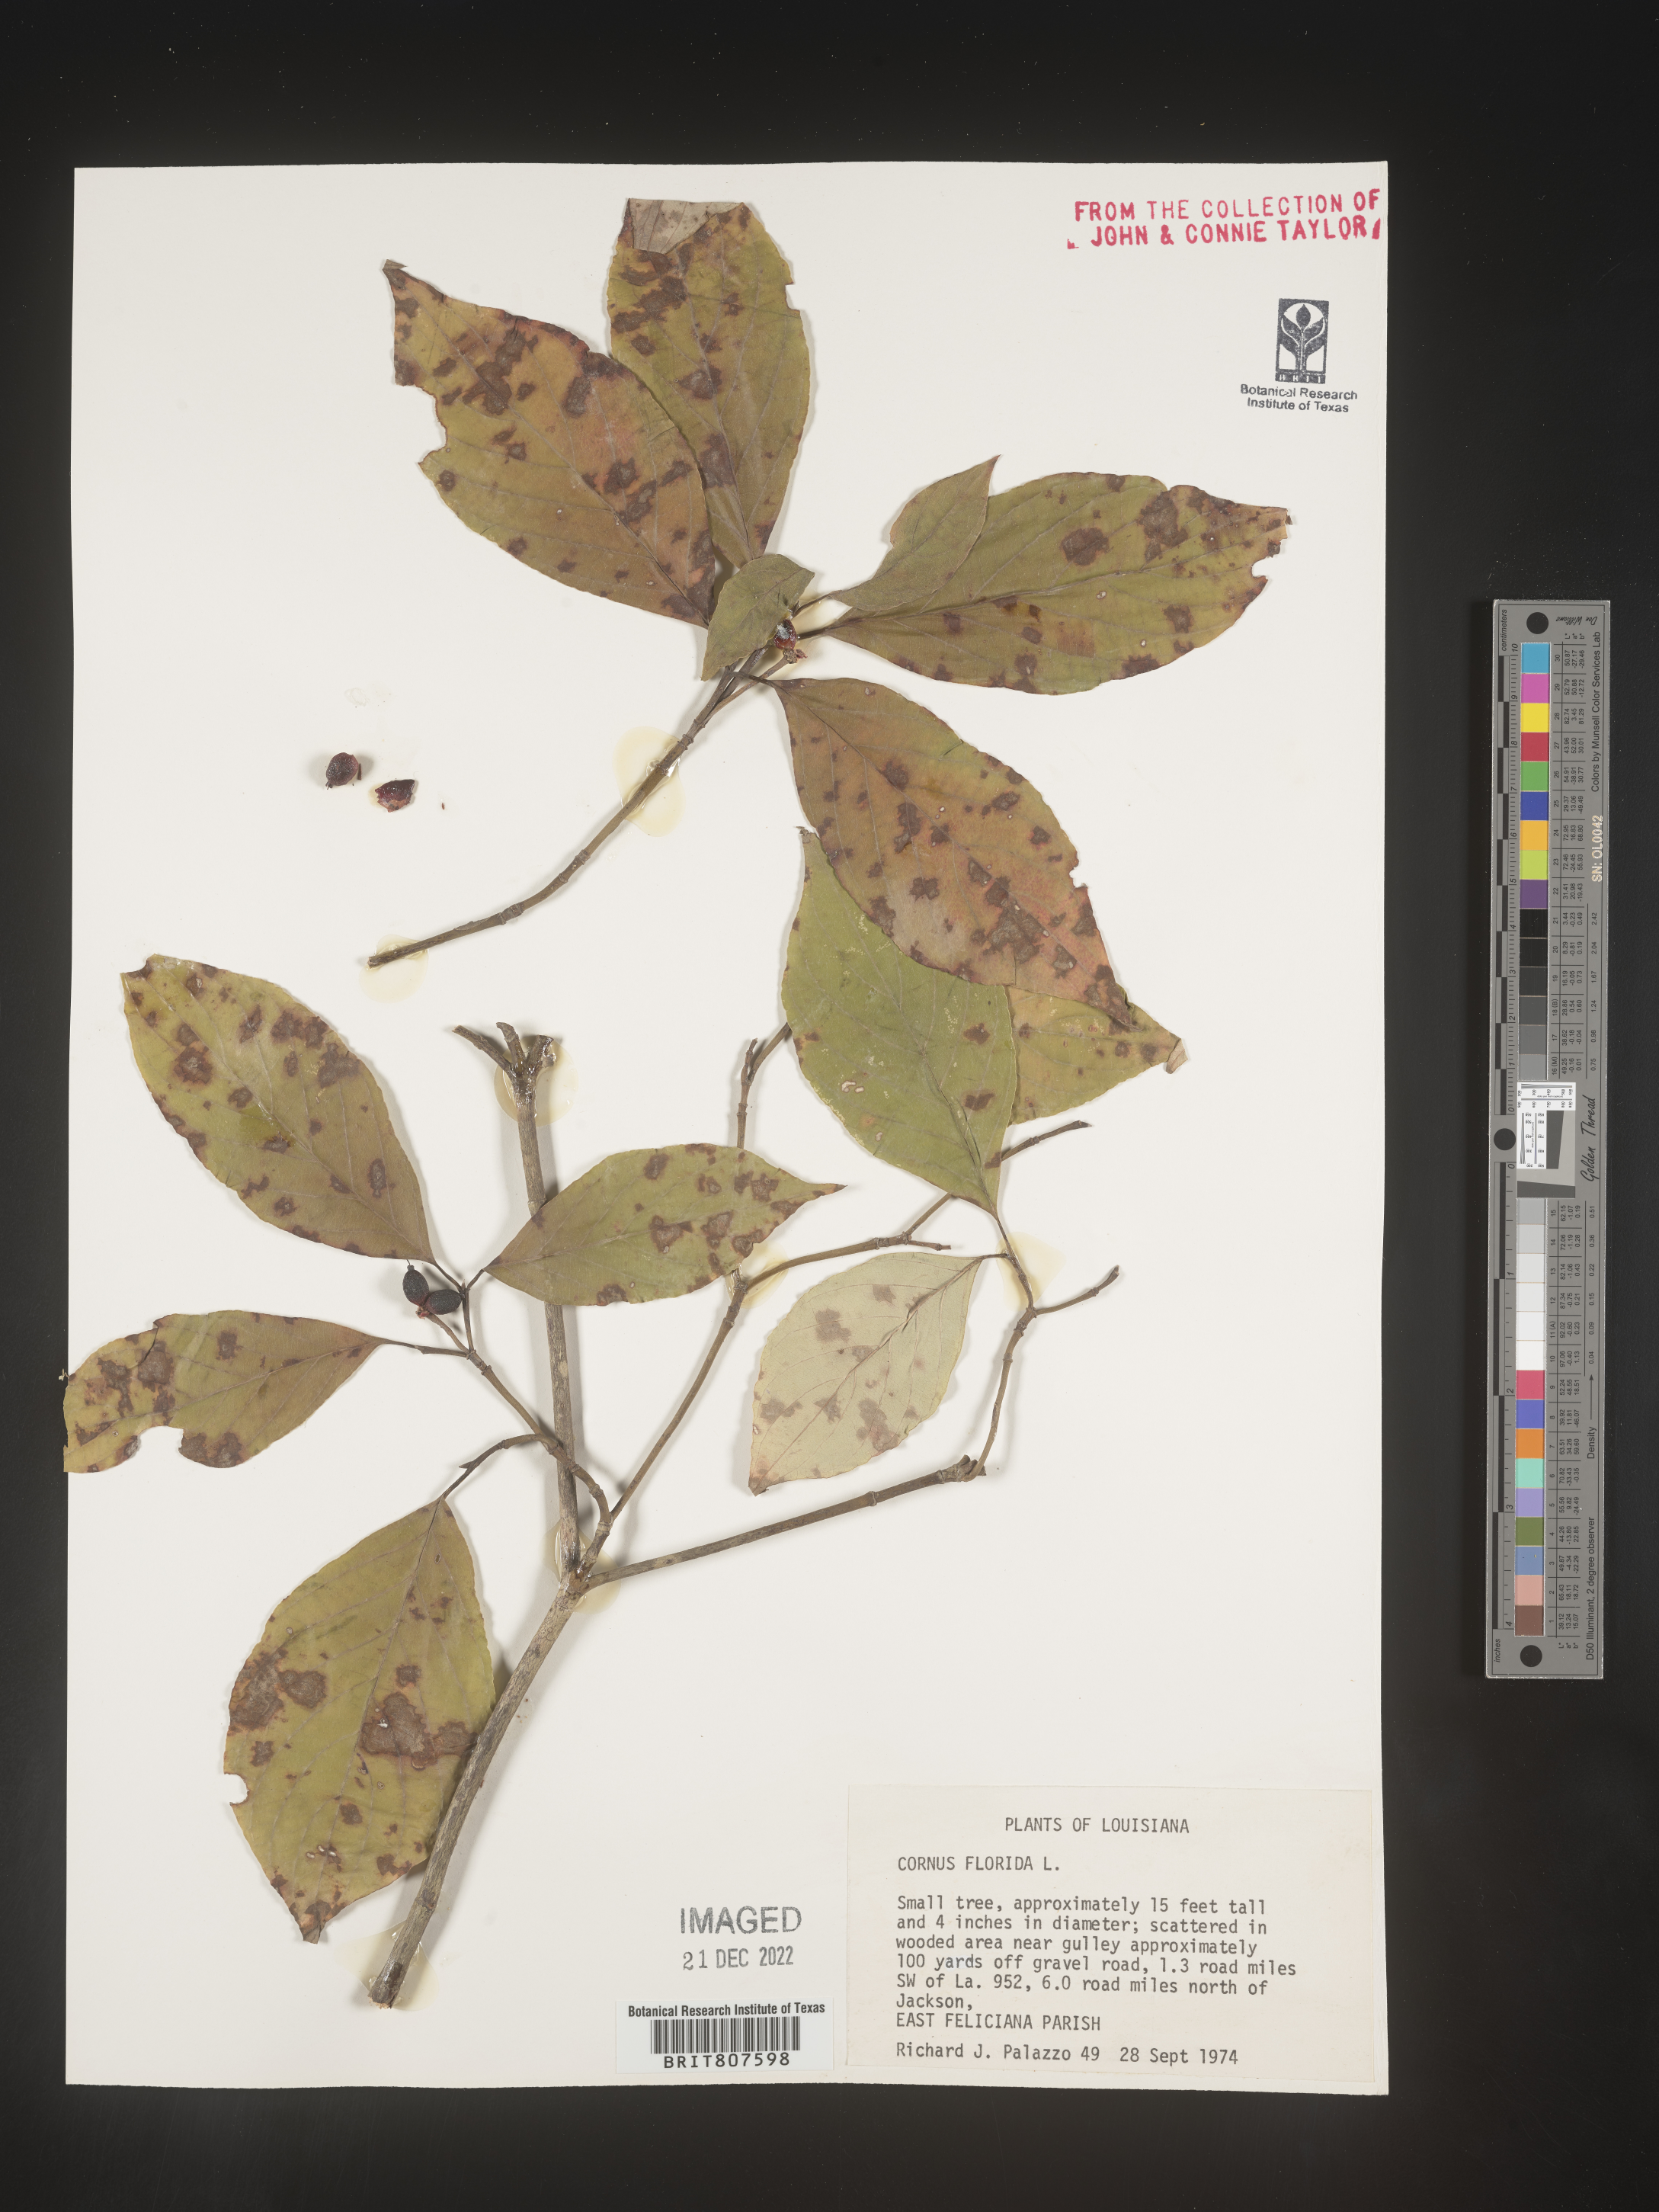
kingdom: Plantae
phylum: Tracheophyta
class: Magnoliopsida
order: Cornales
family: Cornaceae
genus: Cornus
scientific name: Cornus florida
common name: Flowering dogwood
